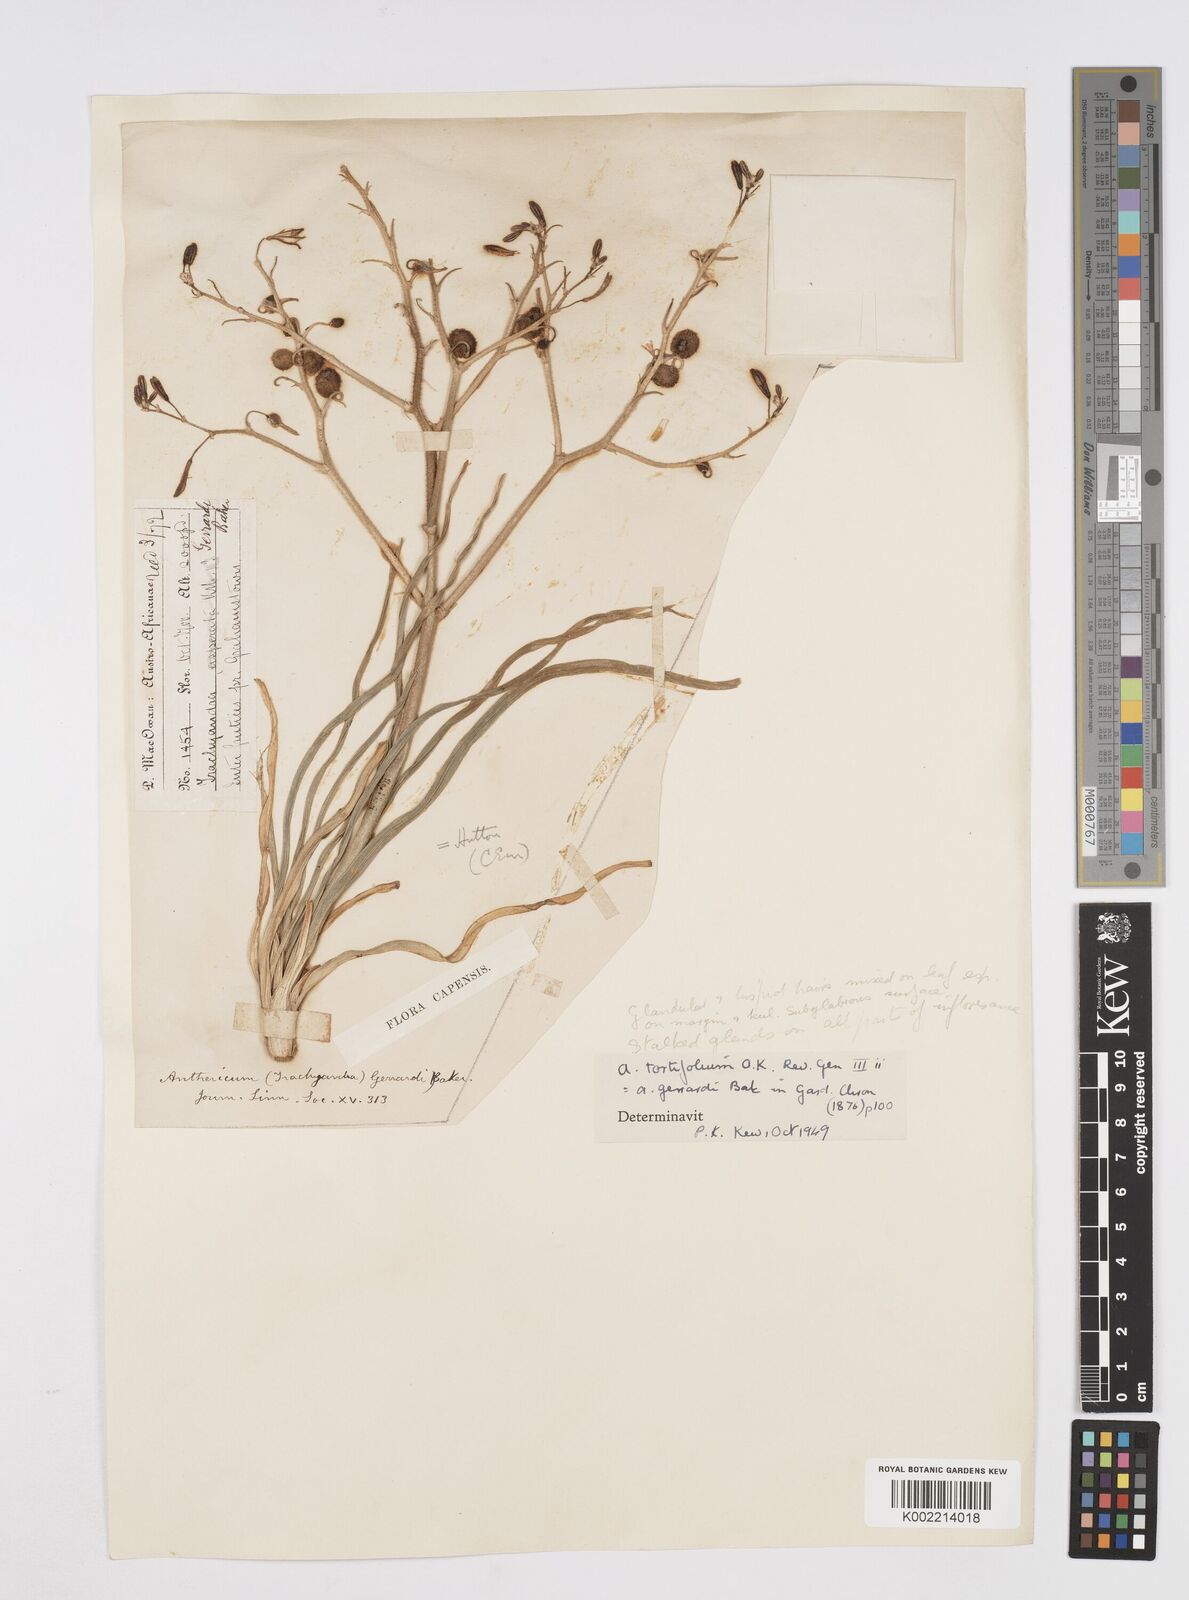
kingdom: Plantae
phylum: Tracheophyta
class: Liliopsida
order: Asparagales
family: Asphodelaceae
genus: Trachyandra
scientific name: Trachyandra gerrardii
